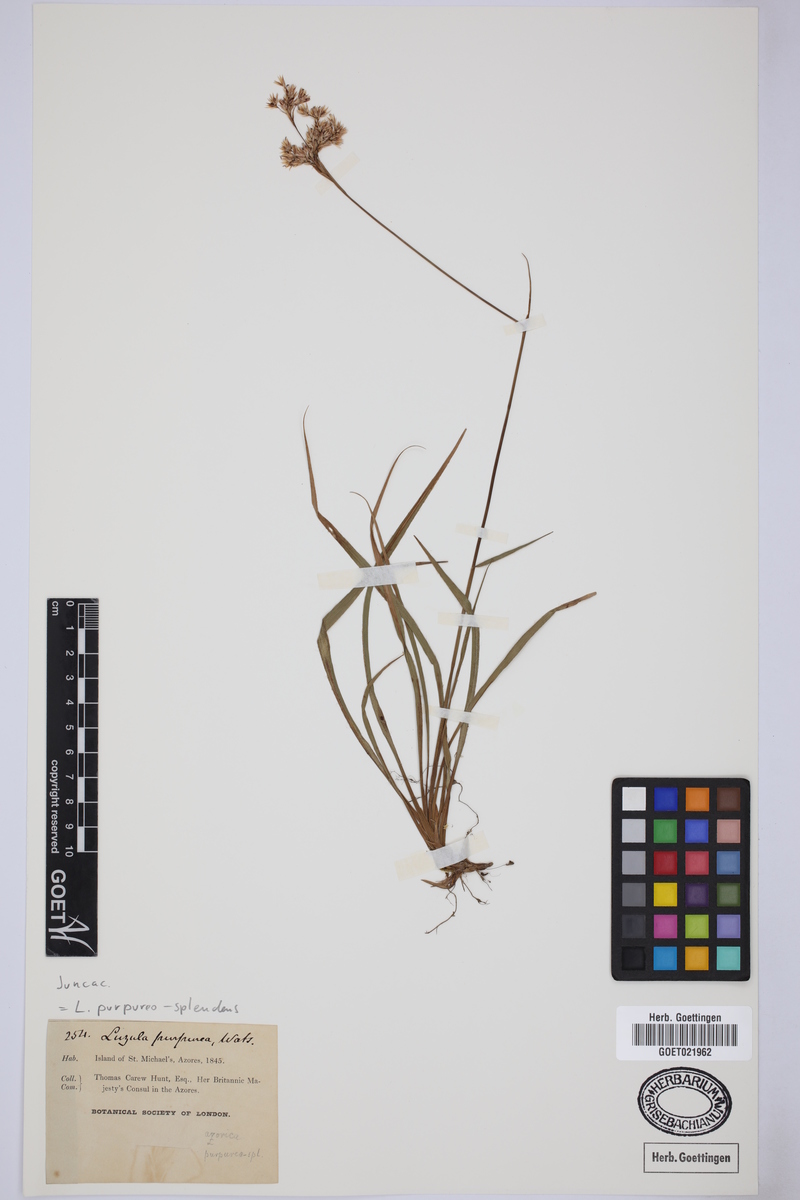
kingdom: Plantae
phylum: Tracheophyta
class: Liliopsida
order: Poales
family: Juncaceae
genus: Luzula
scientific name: Luzula purpureosplendens
